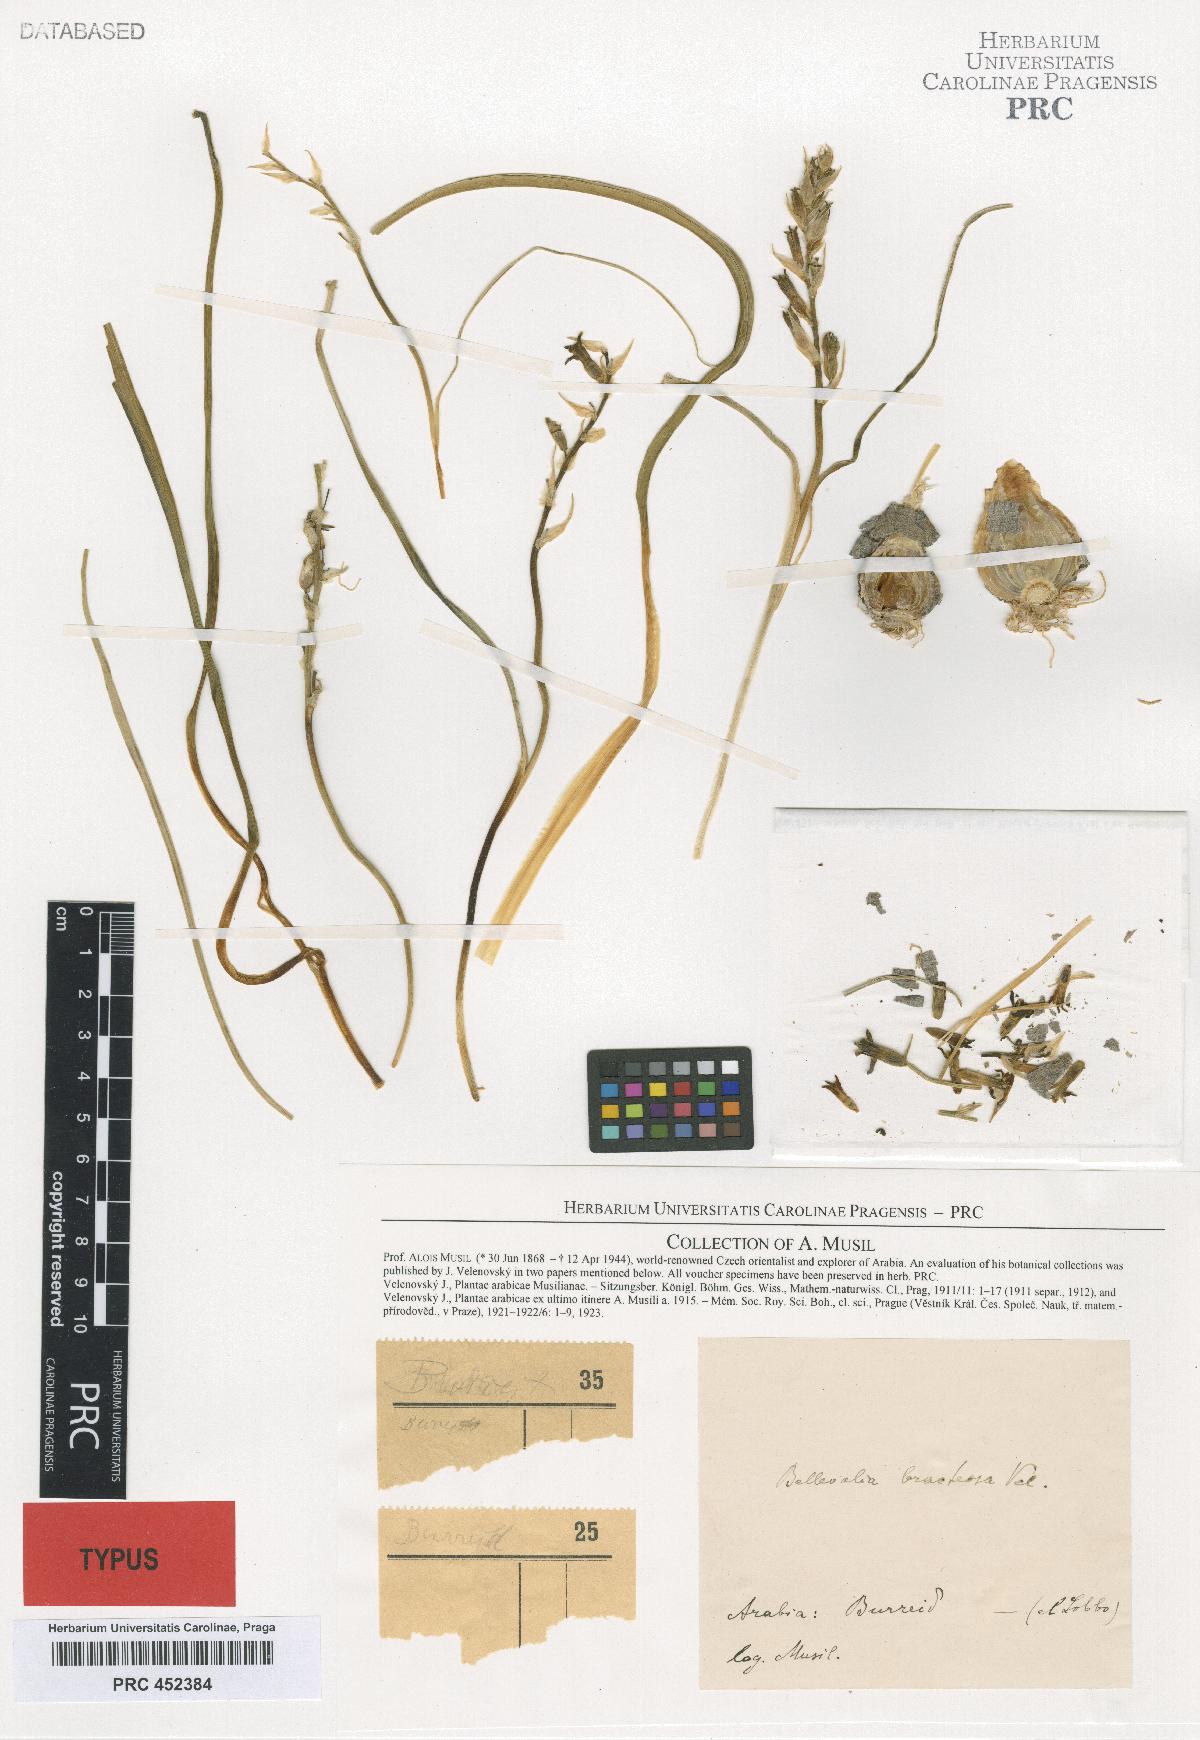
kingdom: Plantae
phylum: Tracheophyta
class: Liliopsida
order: Asparagales
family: Asparagaceae
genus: Bellevalia
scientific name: Bellevalia bracteosa
